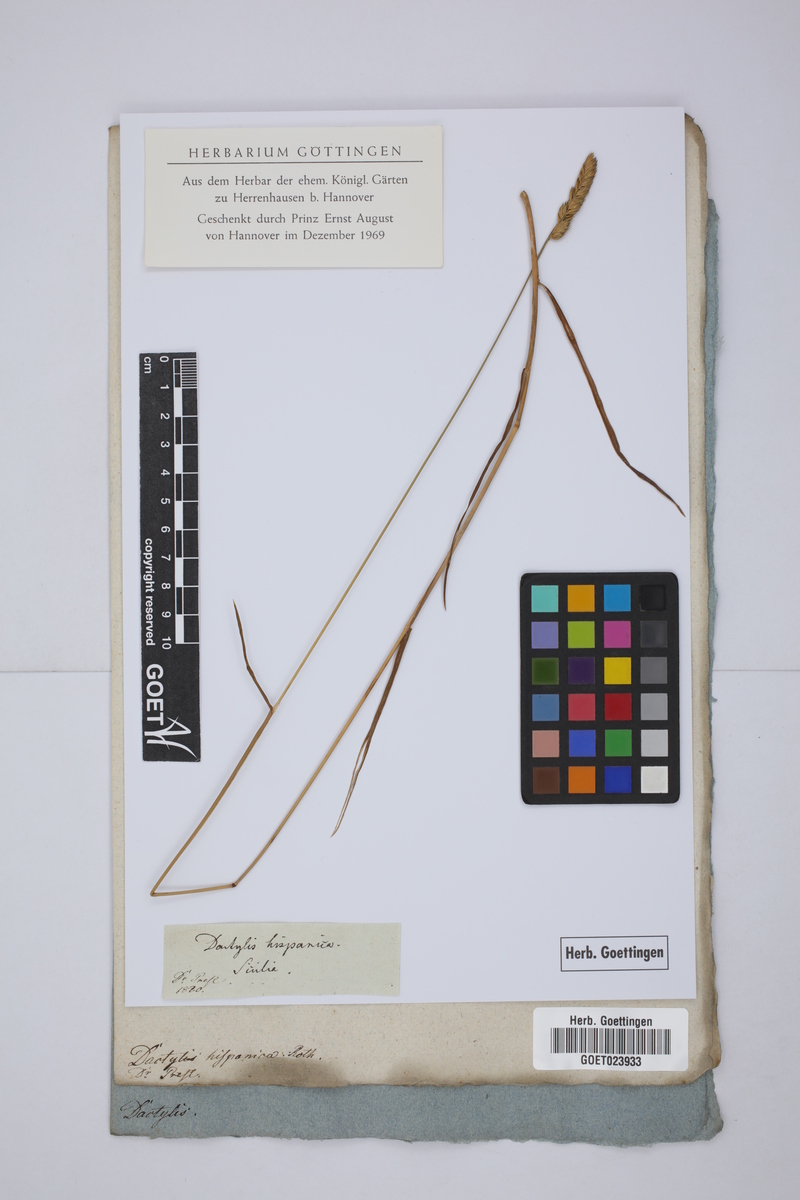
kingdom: Plantae
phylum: Tracheophyta
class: Liliopsida
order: Poales
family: Poaceae
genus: Dactylis
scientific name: Dactylis glomerata
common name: Orchardgrass
